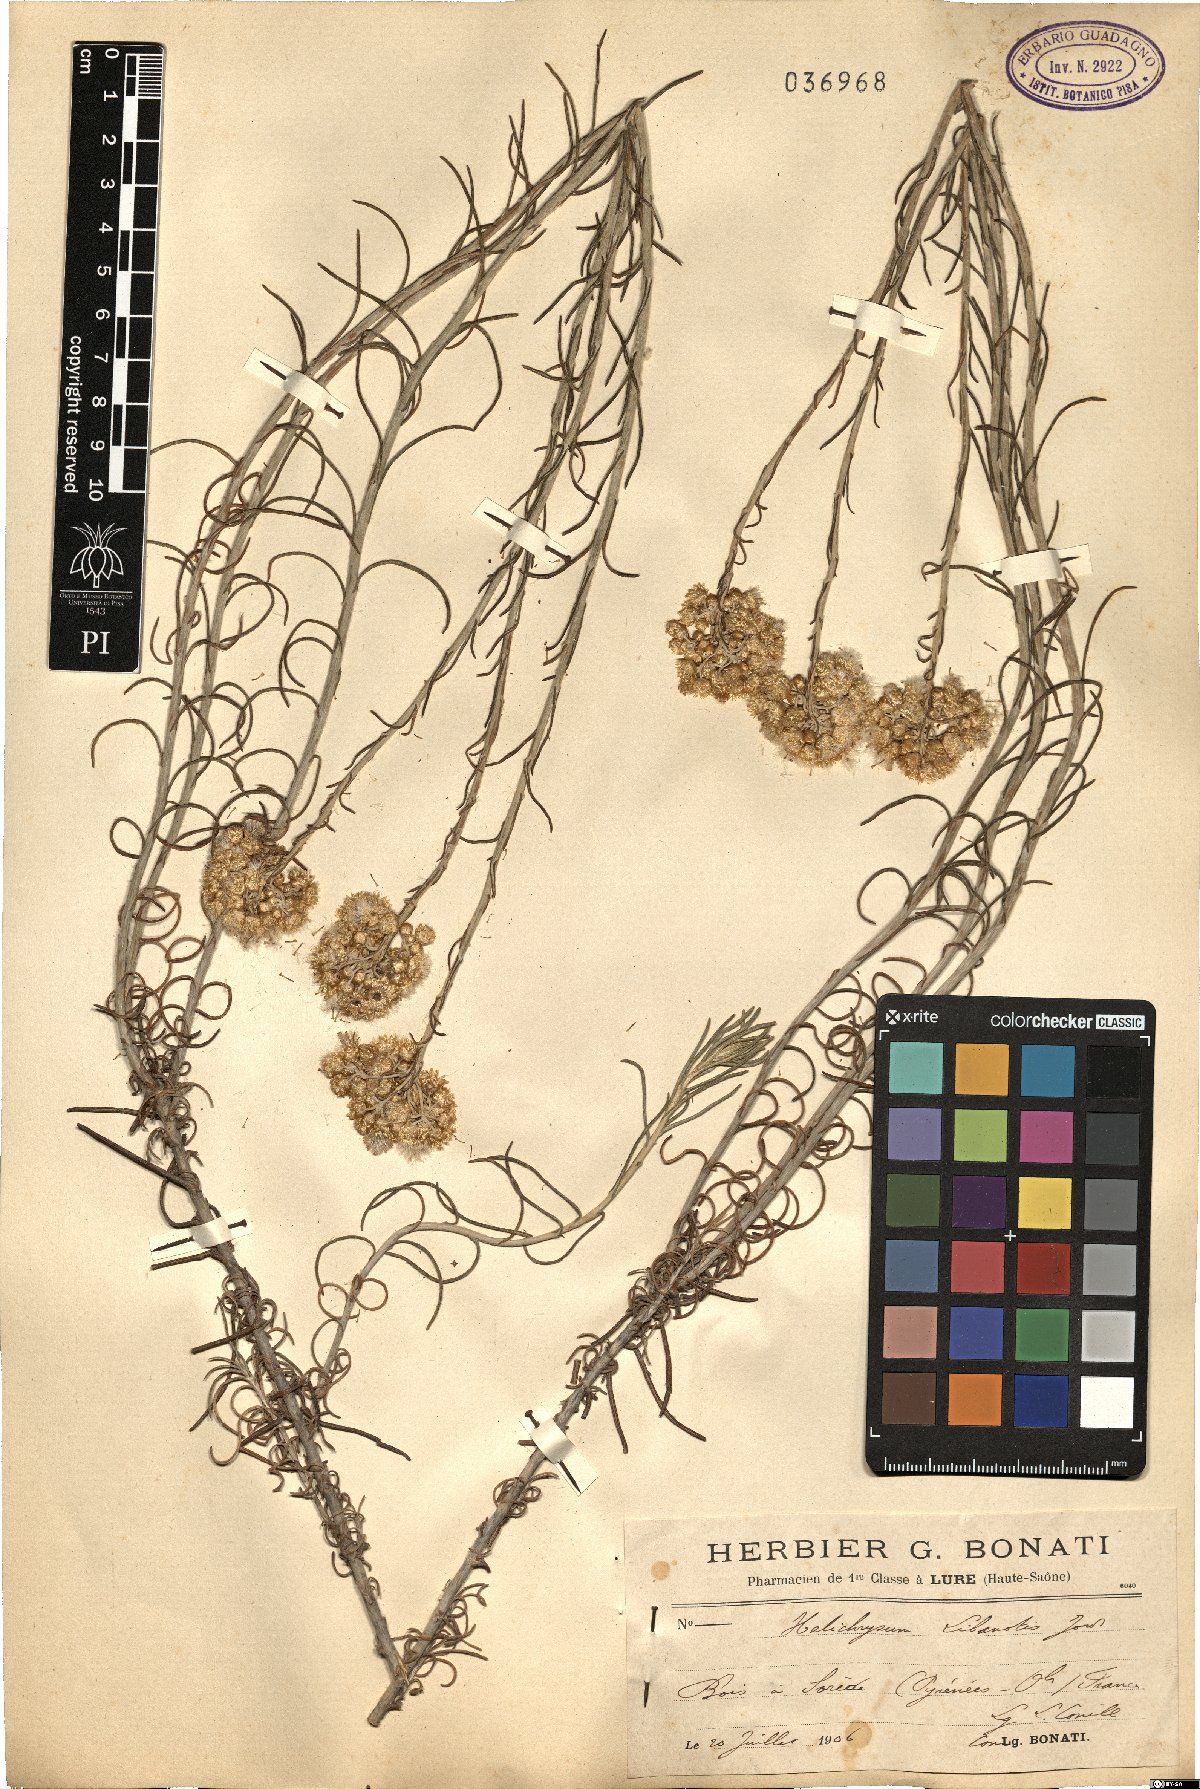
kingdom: Plantae
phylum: Tracheophyta
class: Magnoliopsida
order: Asterales
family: Asteraceae
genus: Helichrysum
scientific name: Helichrysum serotinum
